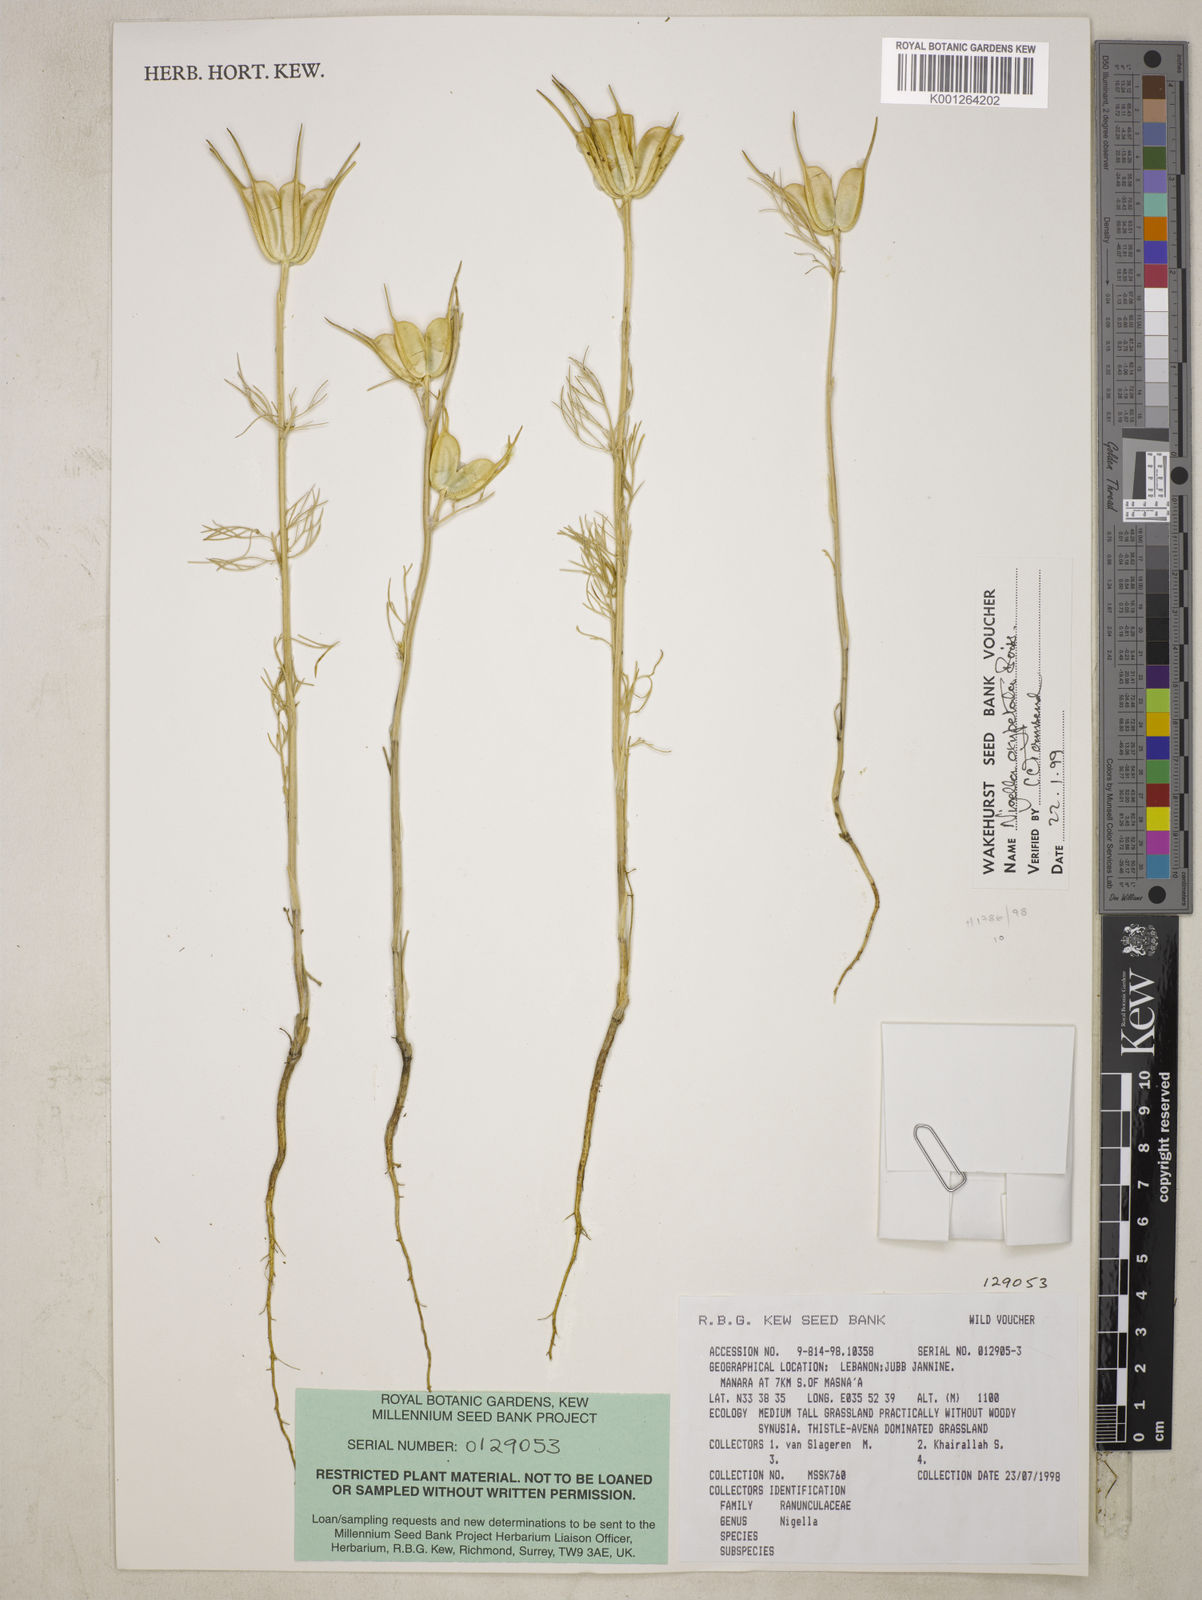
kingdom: Plantae
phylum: Tracheophyta
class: Magnoliopsida
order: Ranunculales
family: Ranunculaceae
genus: Nigella
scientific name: Nigella oxypetala
